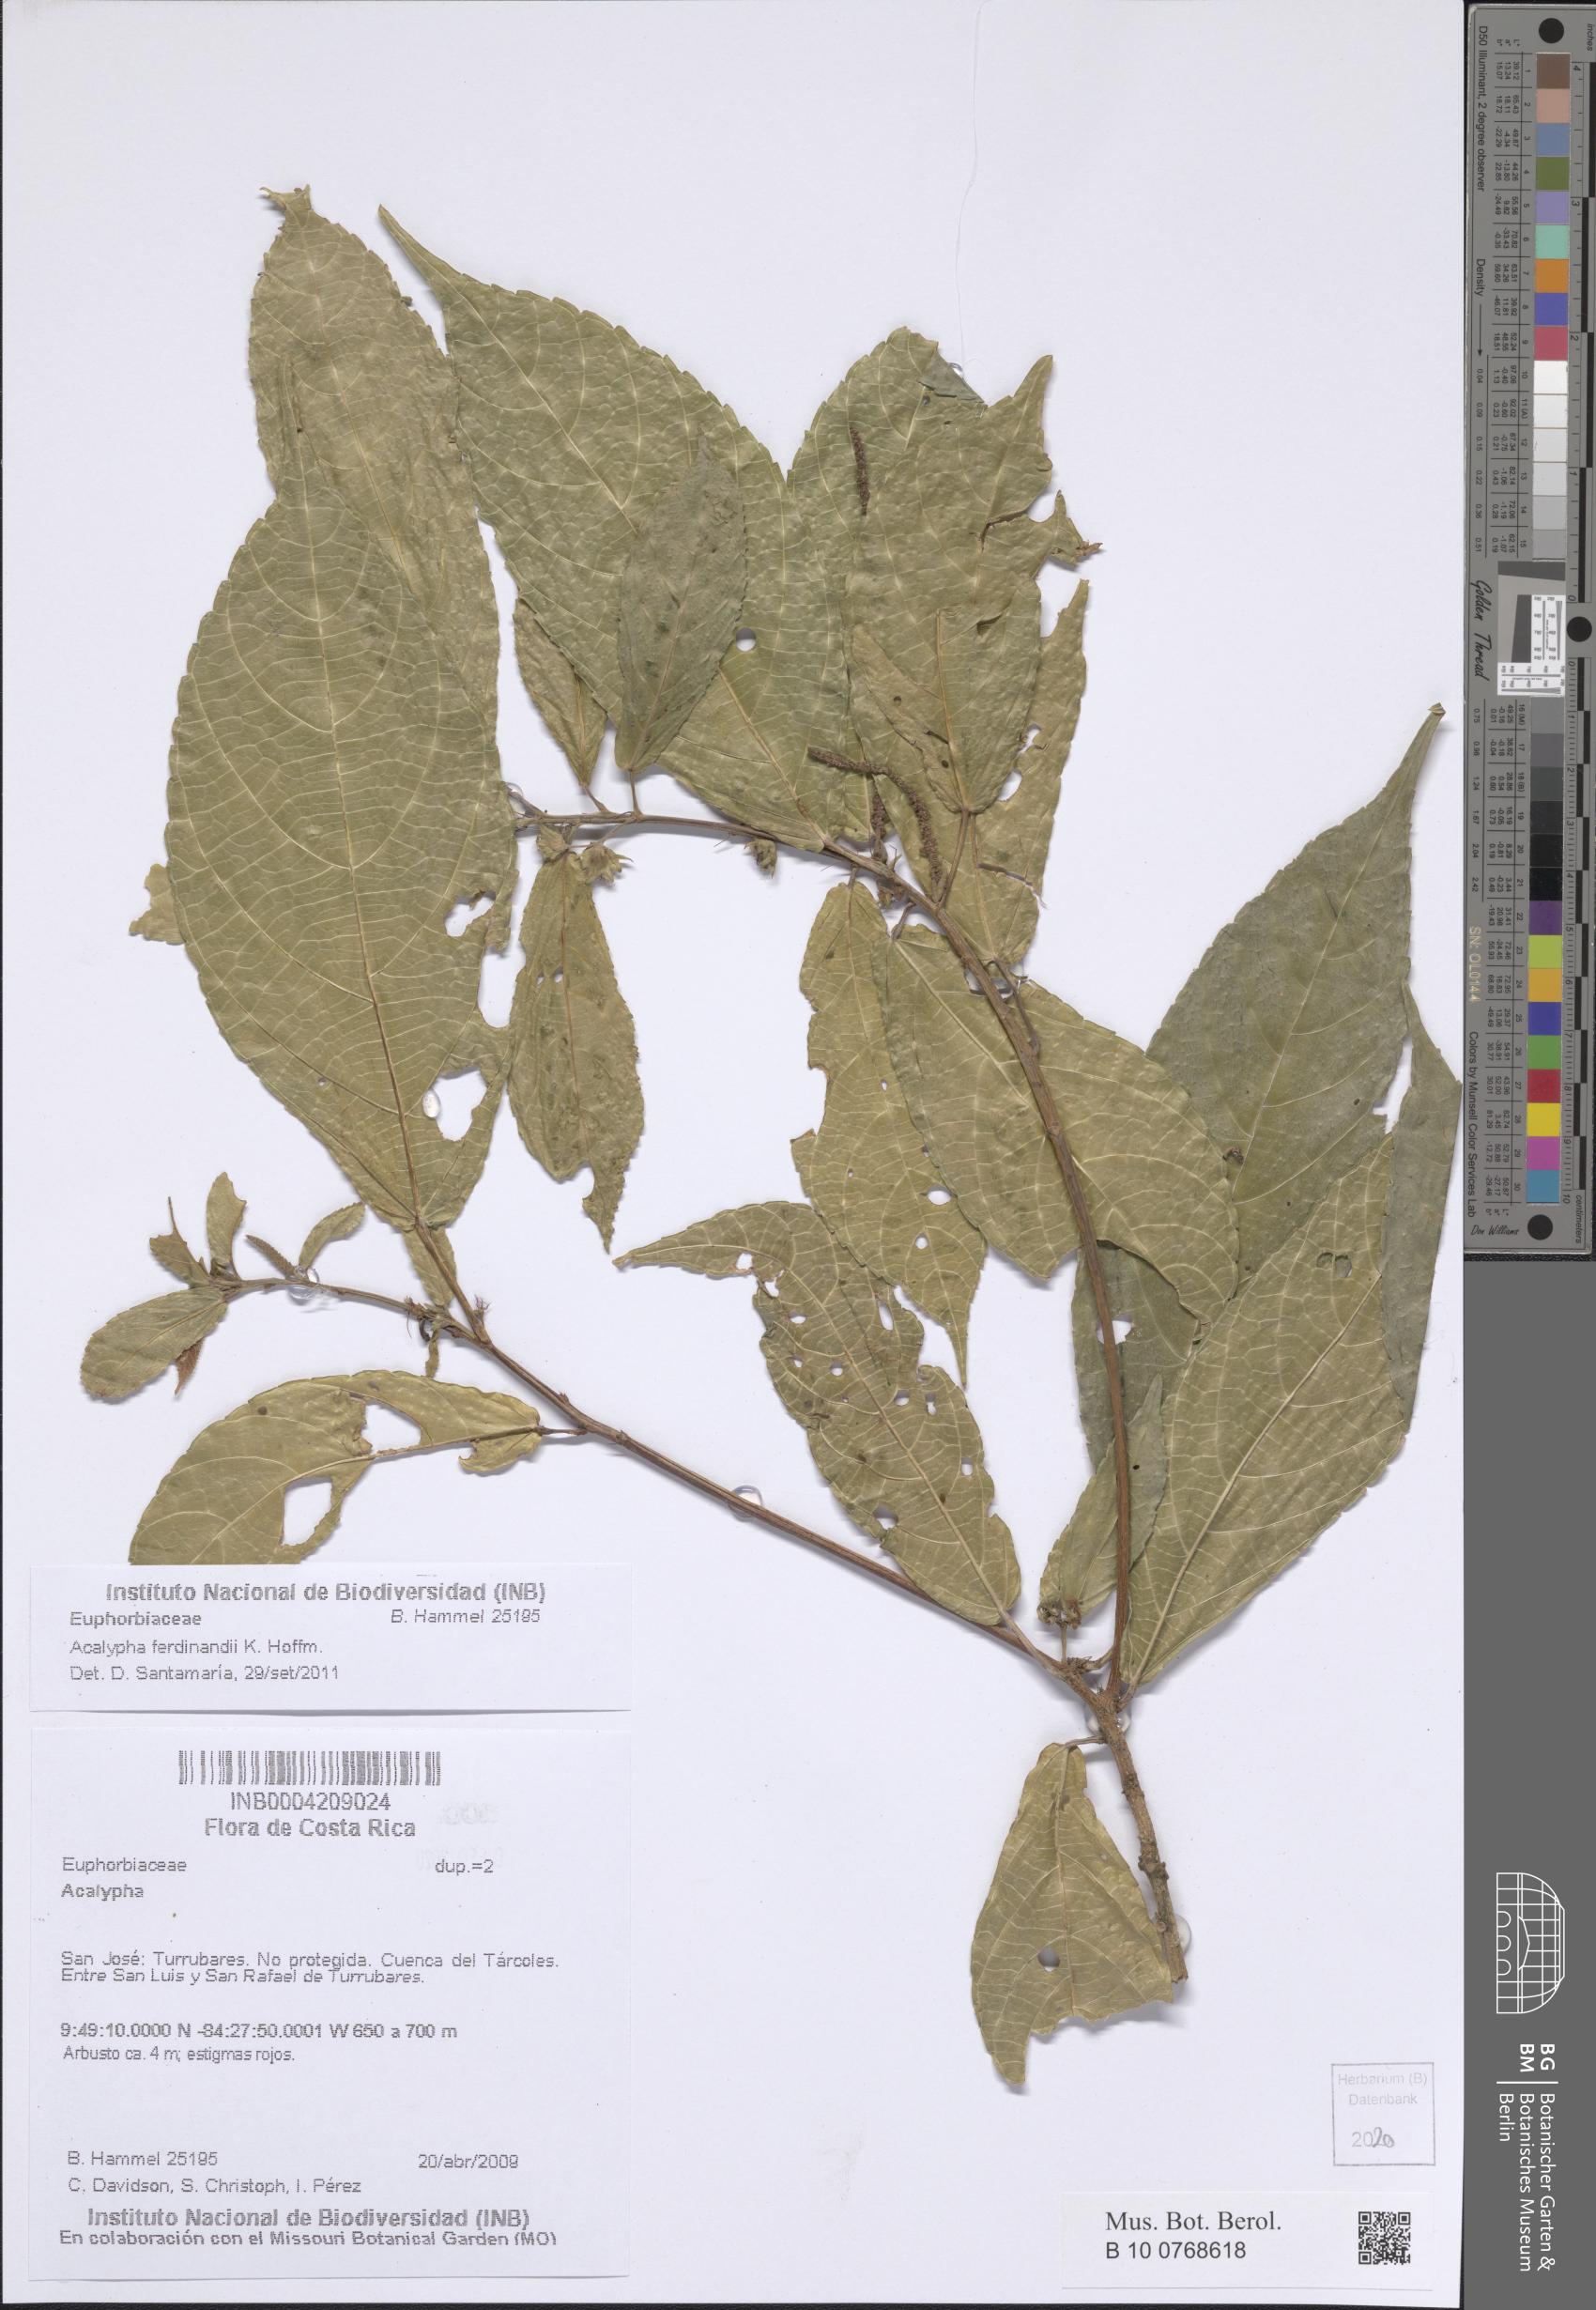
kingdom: Plantae
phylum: Tracheophyta
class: Magnoliopsida
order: Malpighiales
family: Euphorbiaceae
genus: Acalypha
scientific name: Acalypha ferdinandi
